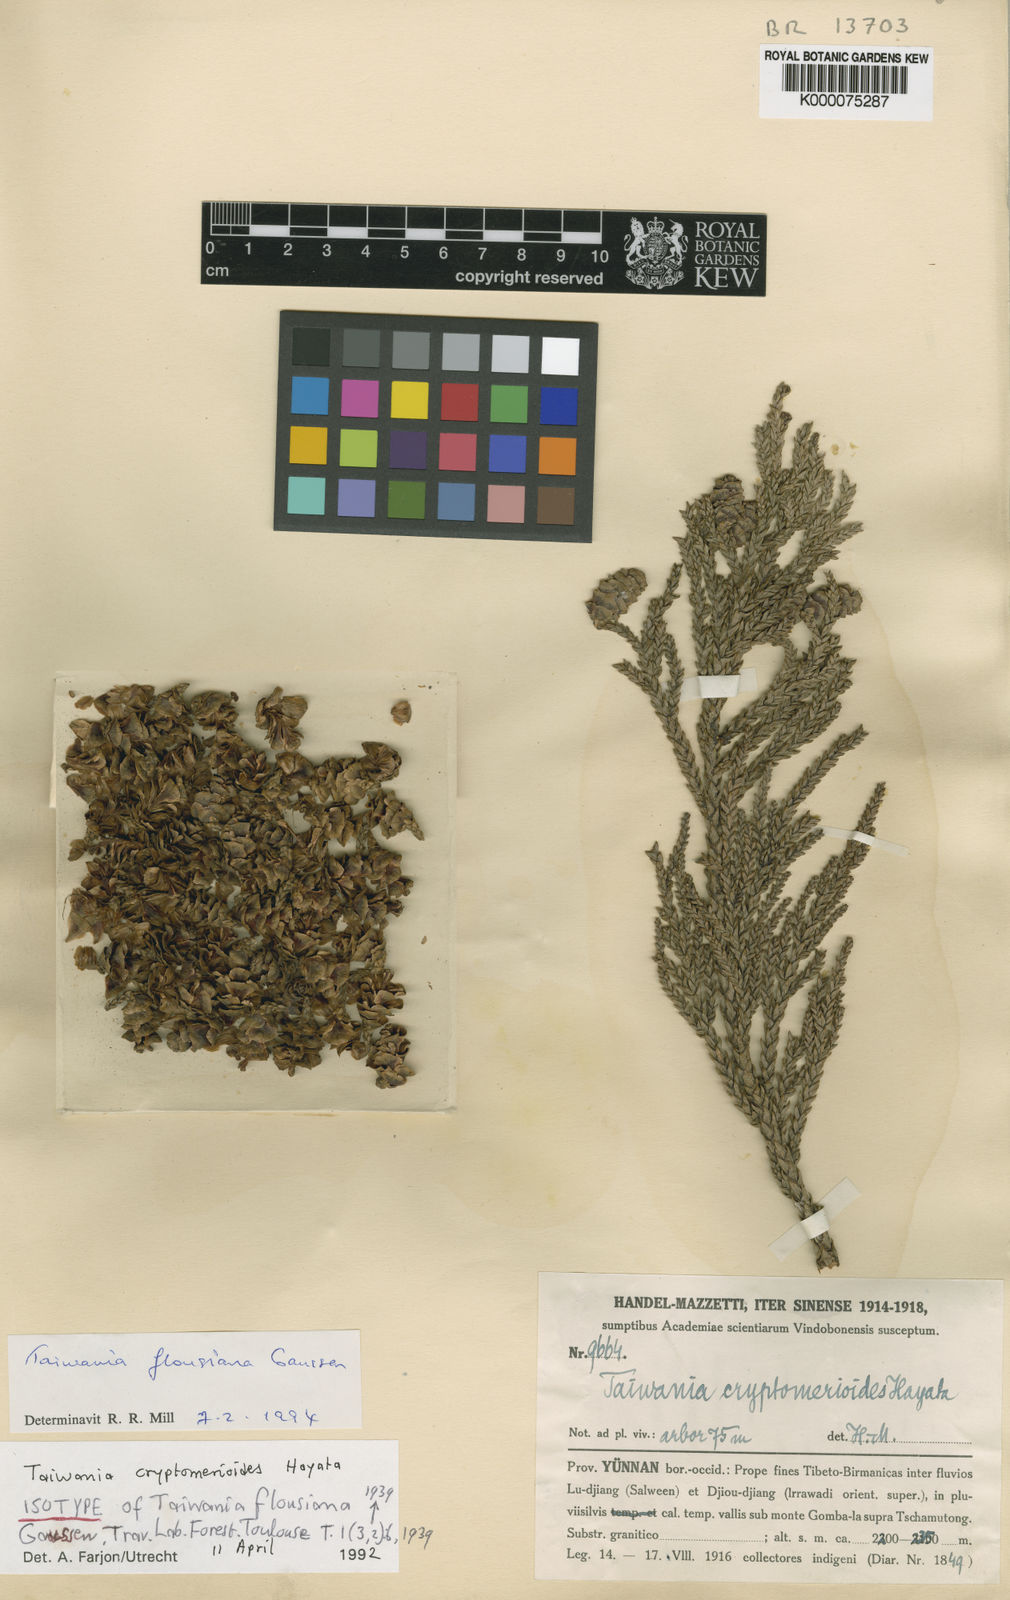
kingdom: Plantae
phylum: Tracheophyta
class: Pinopsida
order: Pinales
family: Cupressaceae
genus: Taiwania
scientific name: Taiwania cryptomerioides
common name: Coffin tree
